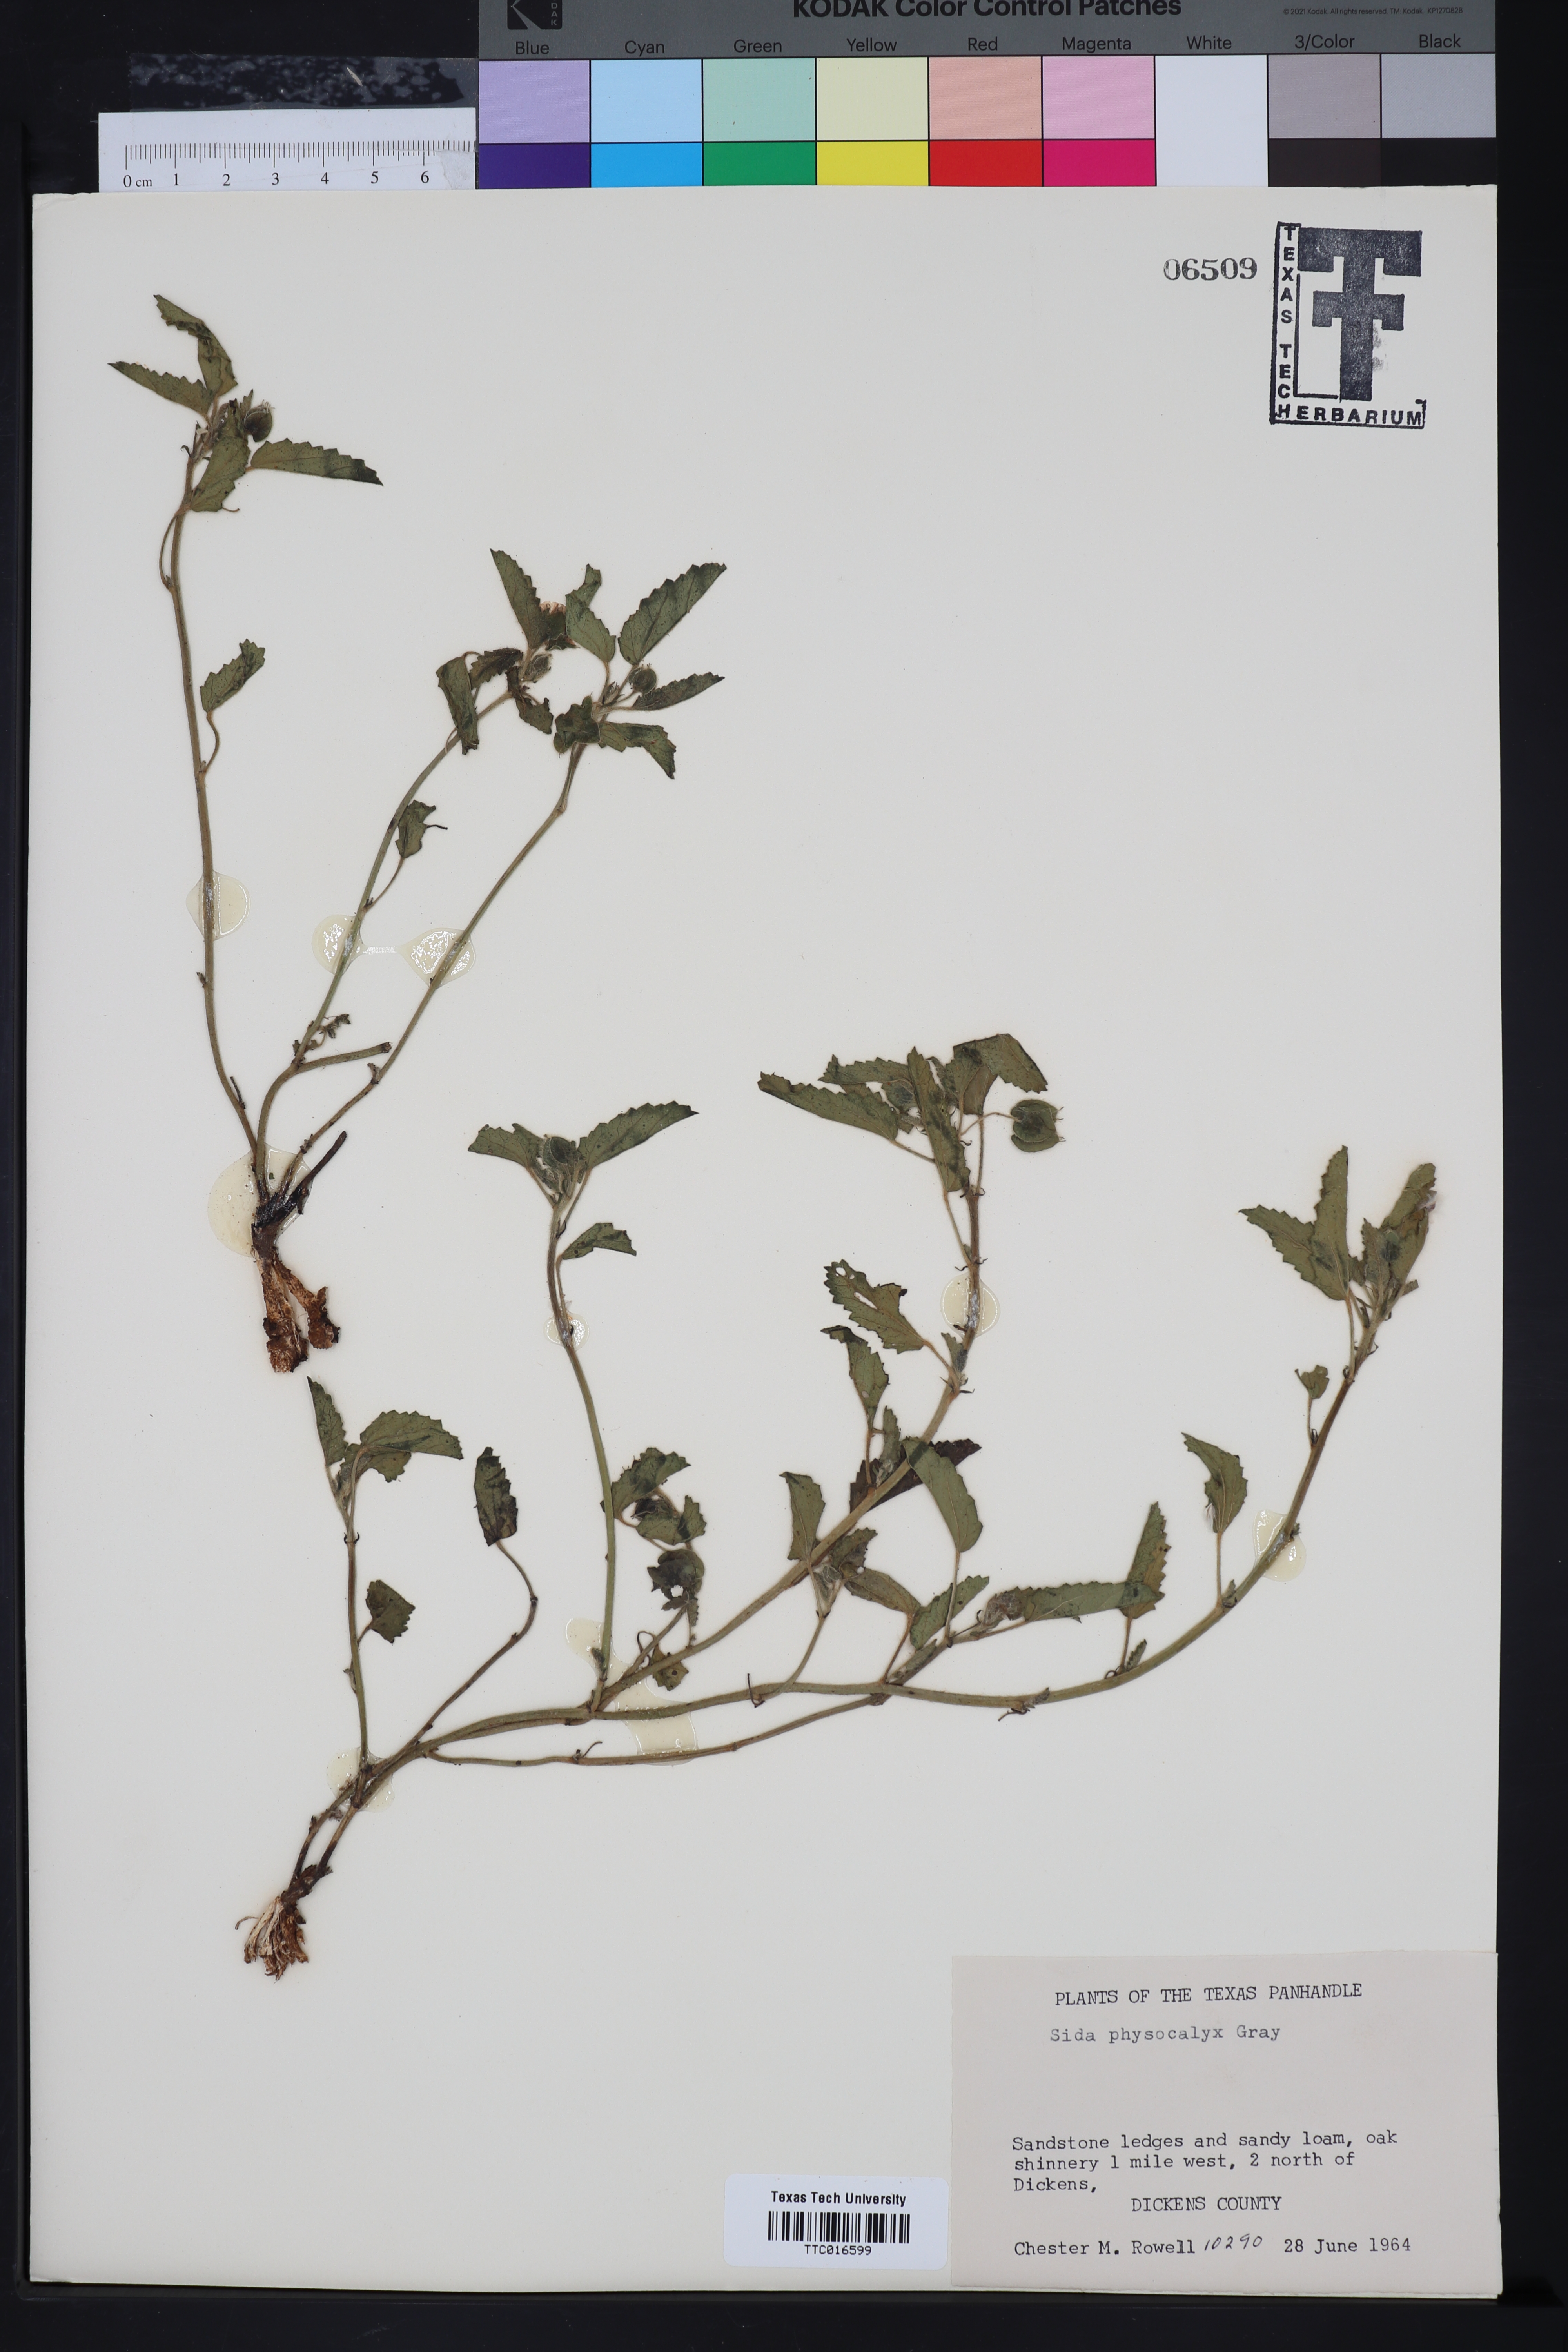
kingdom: Plantae
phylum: Tracheophyta
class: Magnoliopsida
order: Malvales
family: Malvaceae
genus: Rhynchosida
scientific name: Rhynchosida physocalyx
